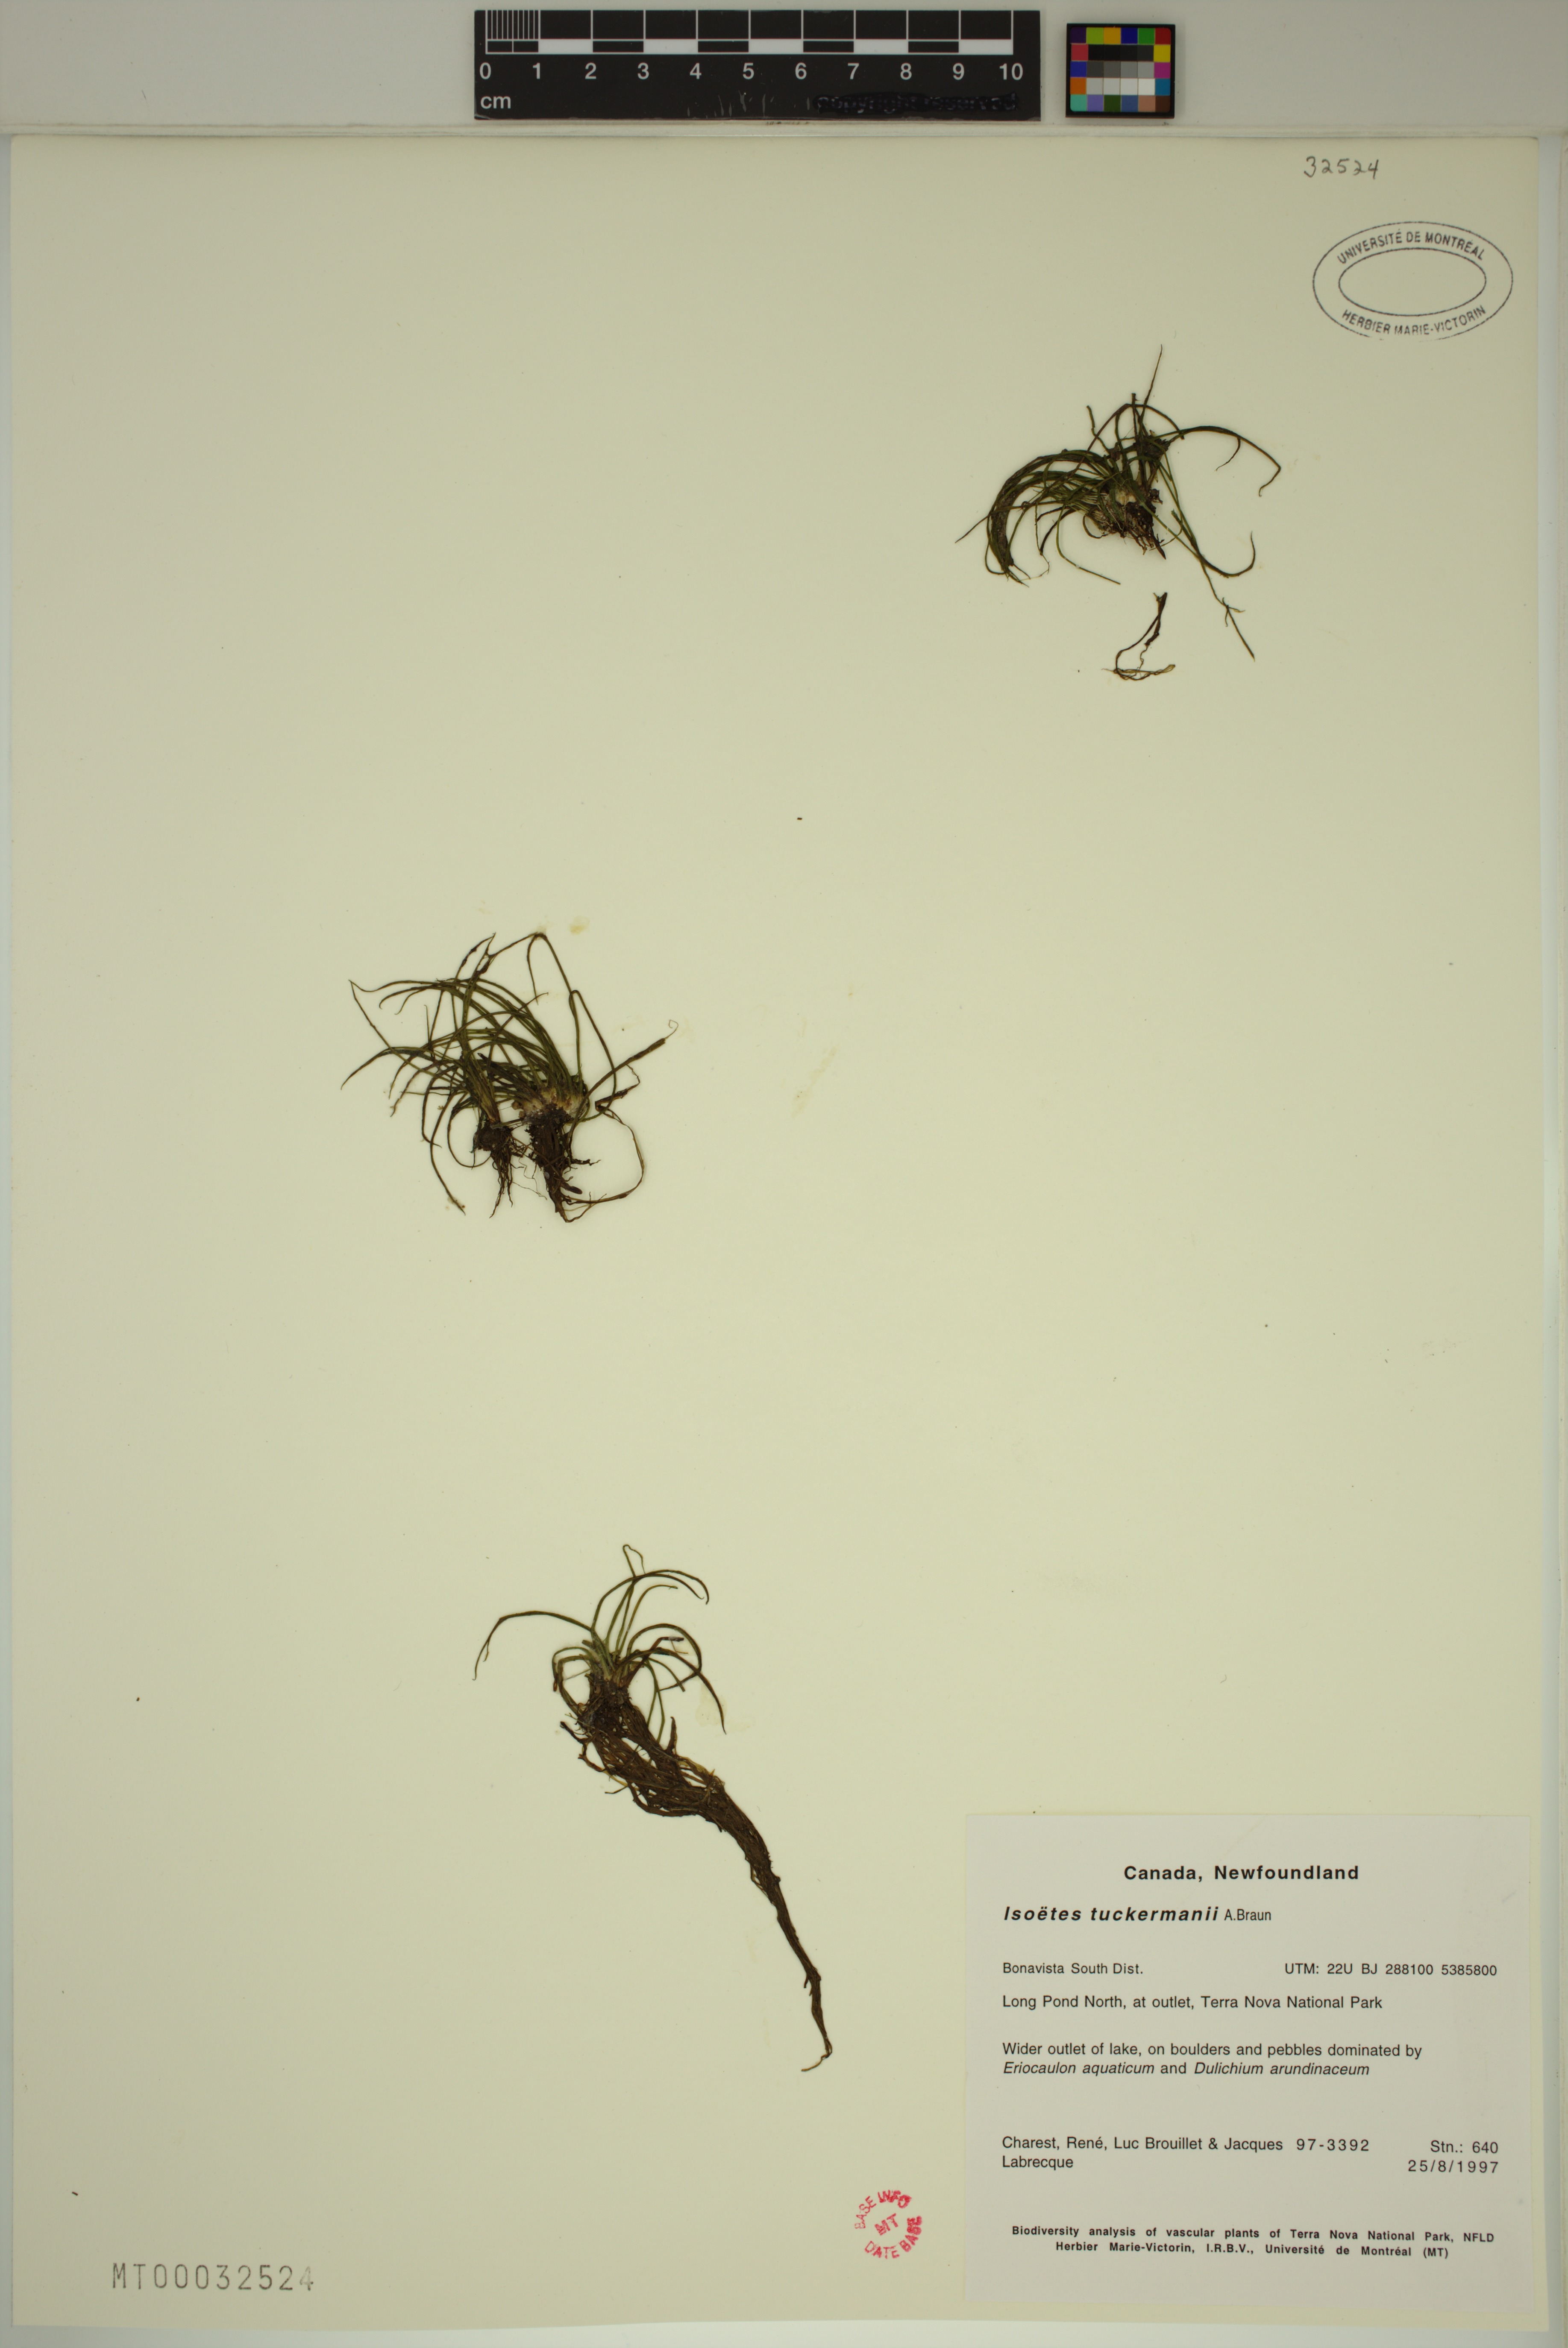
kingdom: Plantae
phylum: Tracheophyta
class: Lycopodiopsida
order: Isoetales
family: Isoetaceae
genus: Isoetes
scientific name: Isoetes tuckermanii
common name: Tuckerman's quillwort
